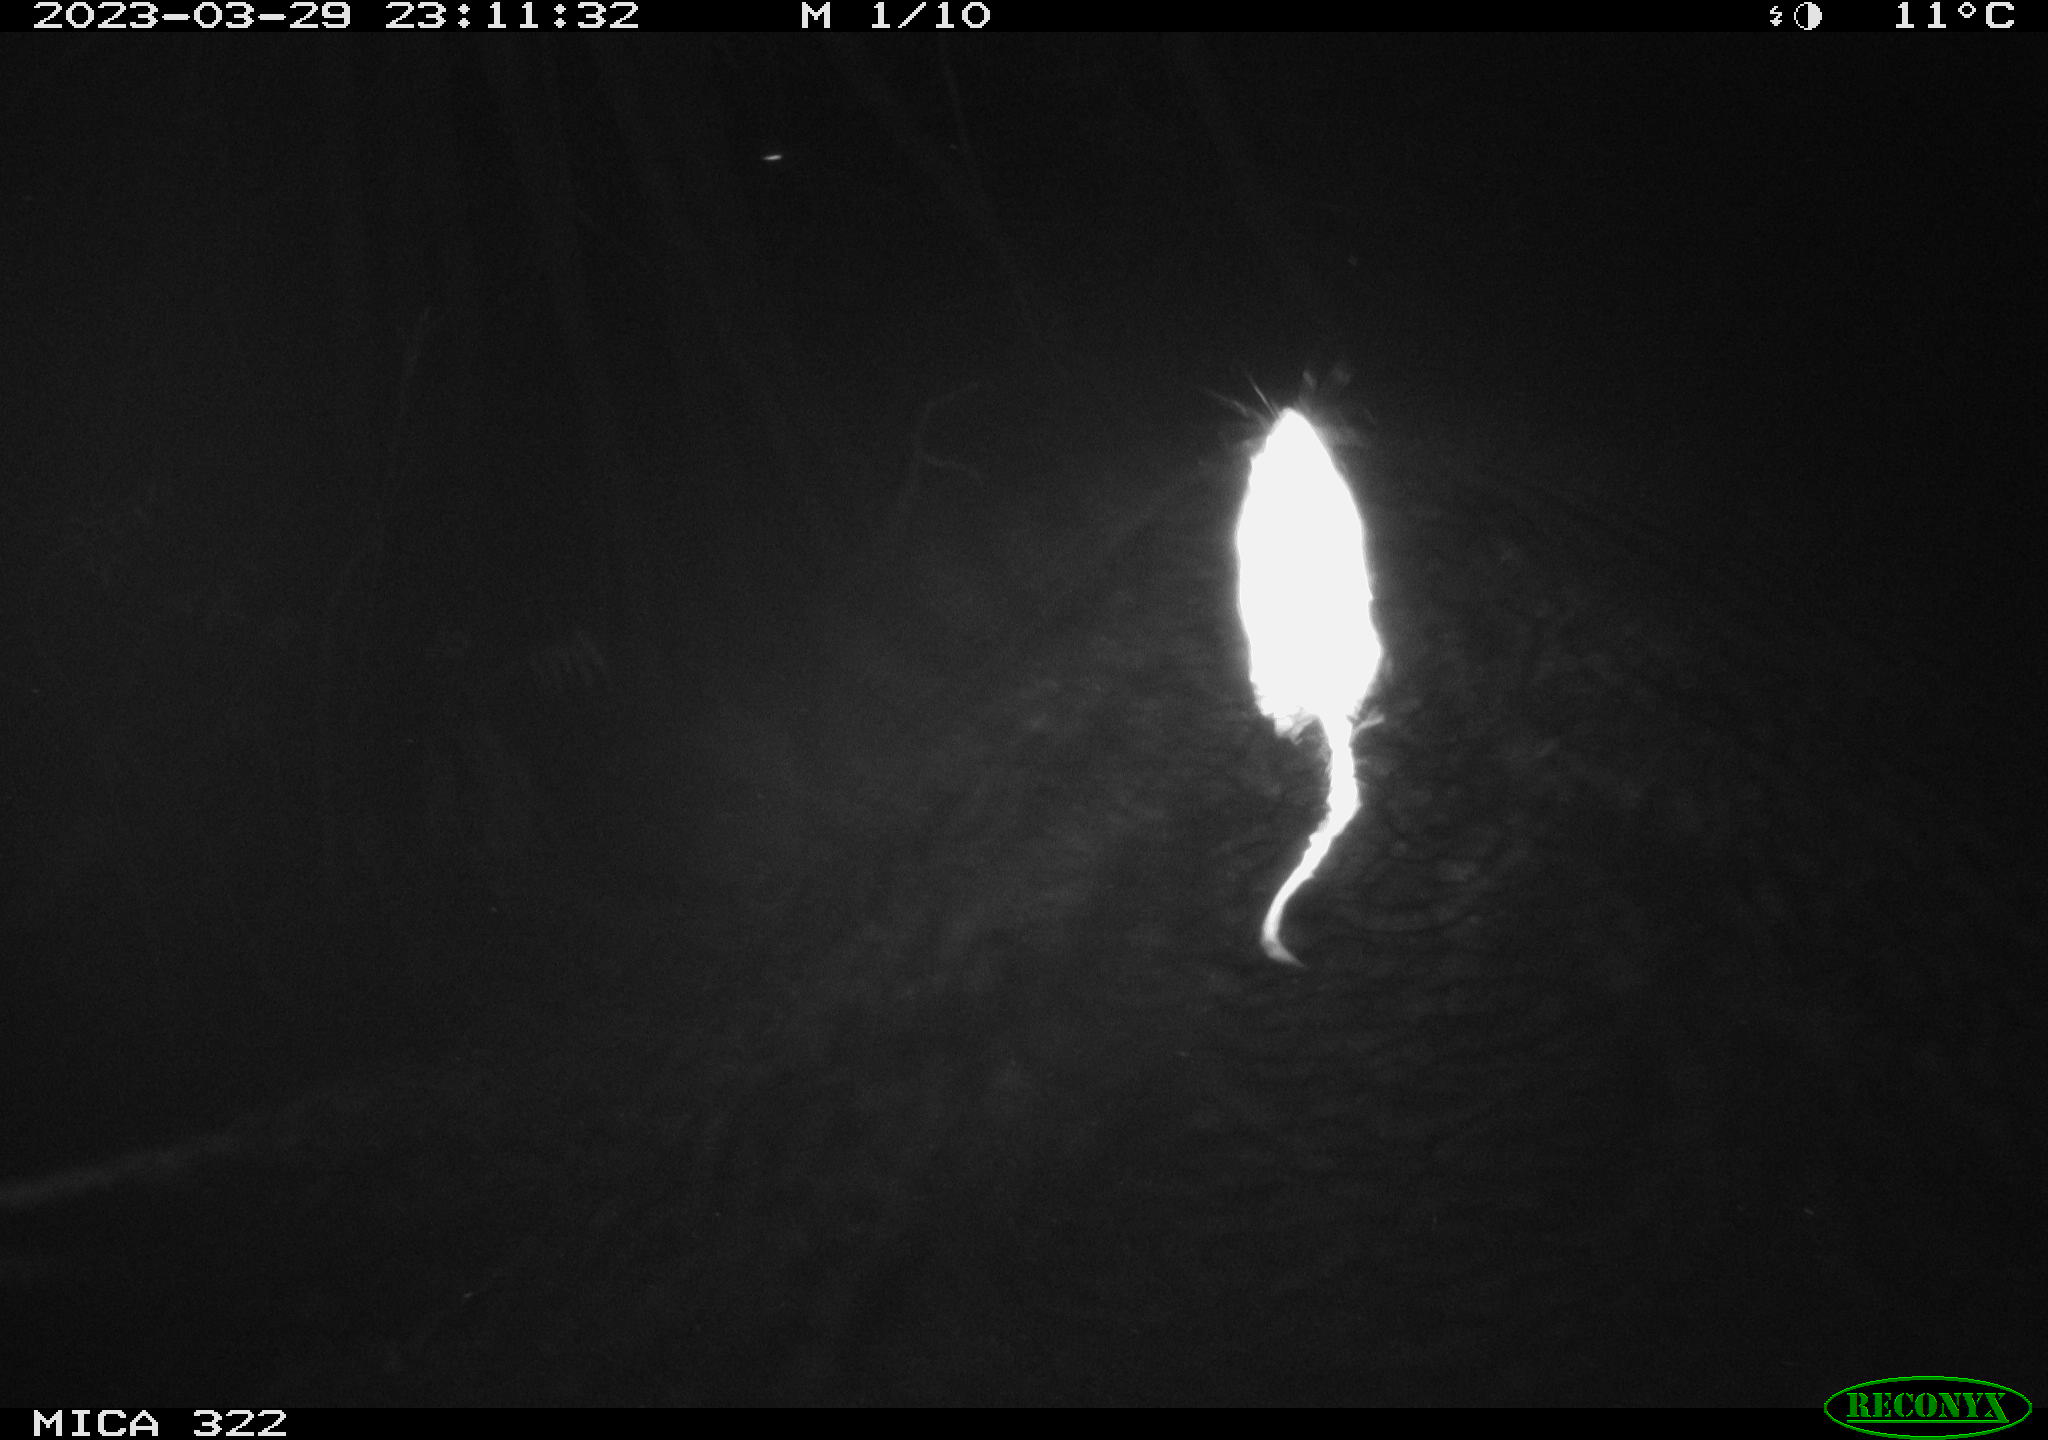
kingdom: Animalia
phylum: Chordata
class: Mammalia
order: Rodentia
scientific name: Rodentia
